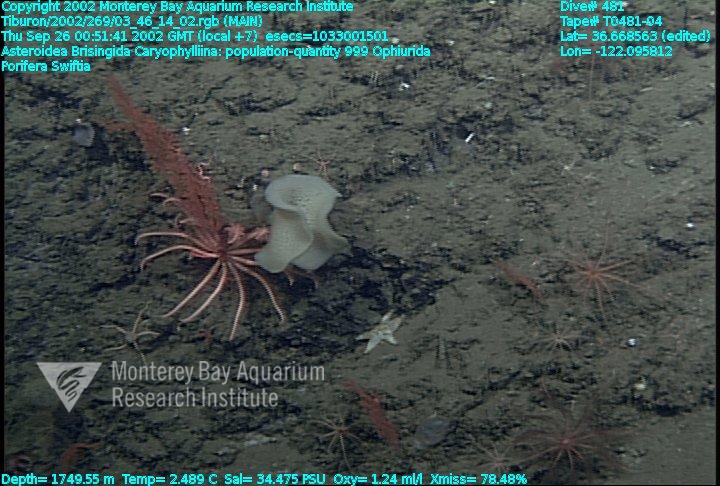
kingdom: Animalia
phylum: Porifera
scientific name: Porifera
